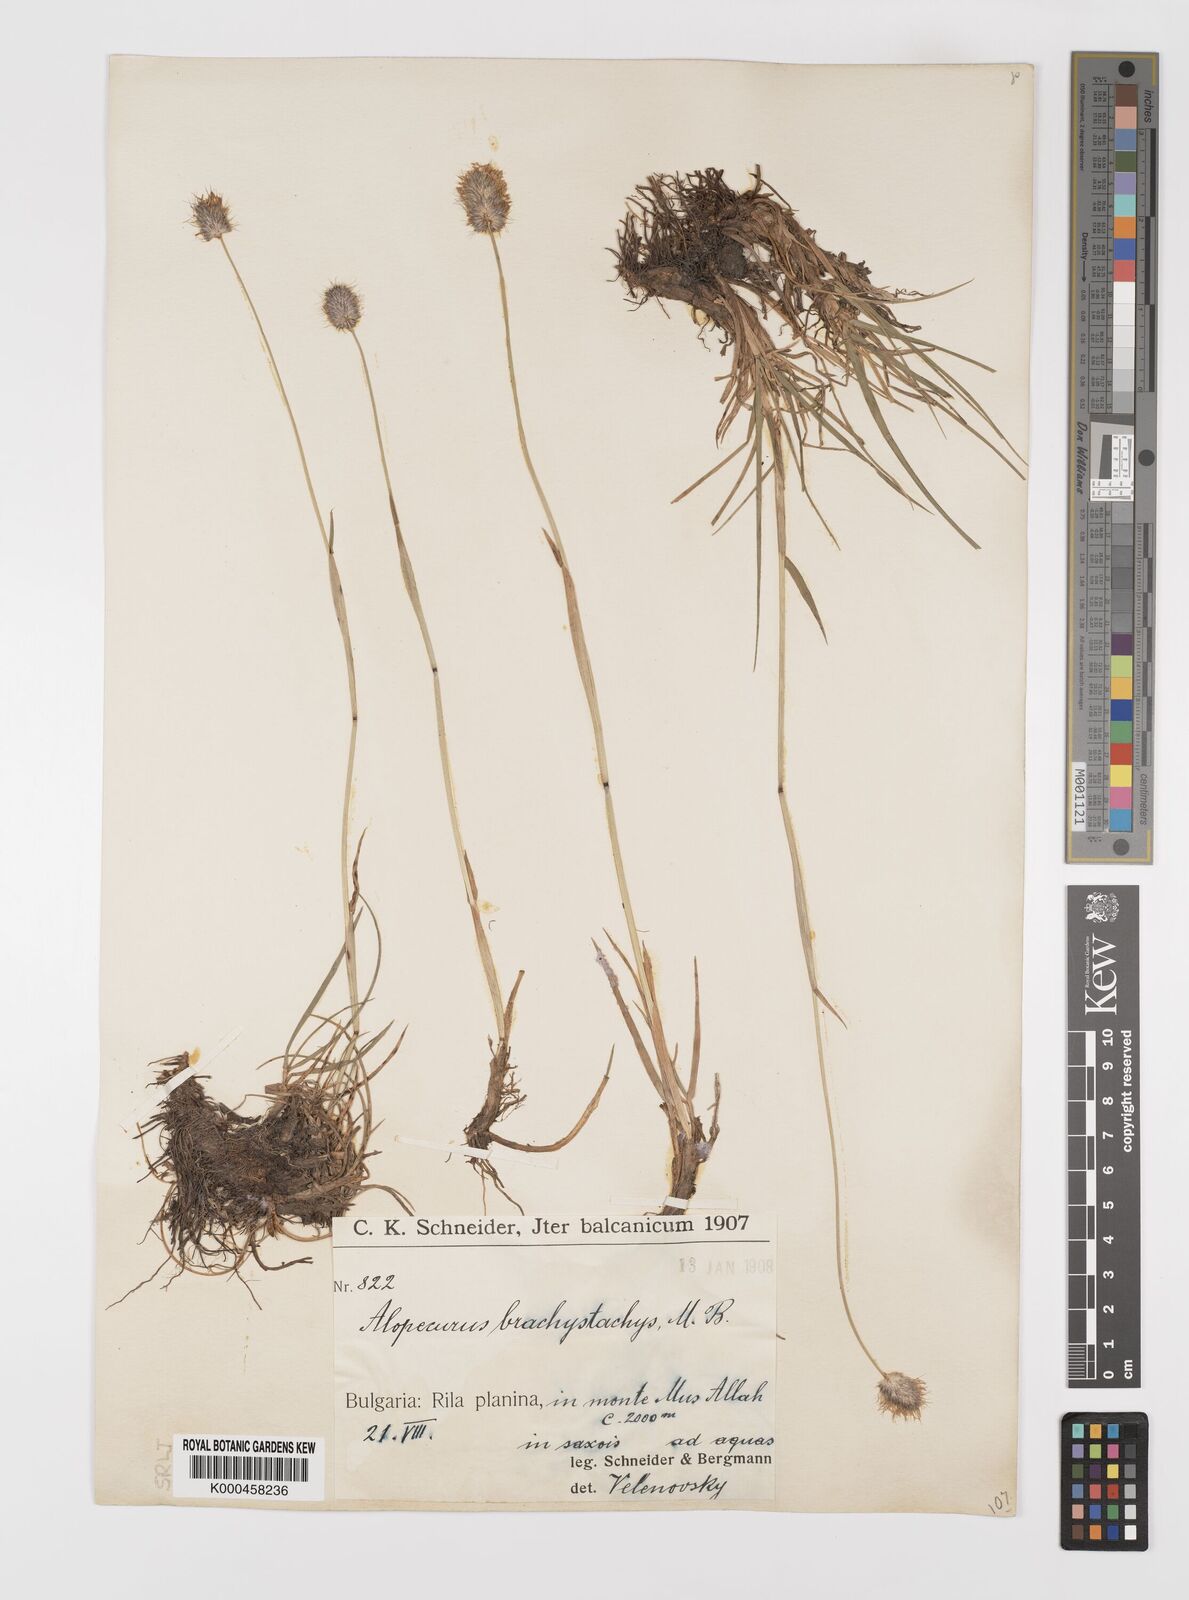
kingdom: Plantae
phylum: Tracheophyta
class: Liliopsida
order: Poales
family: Poaceae
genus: Alopecurus
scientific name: Alopecurus himalaicus
